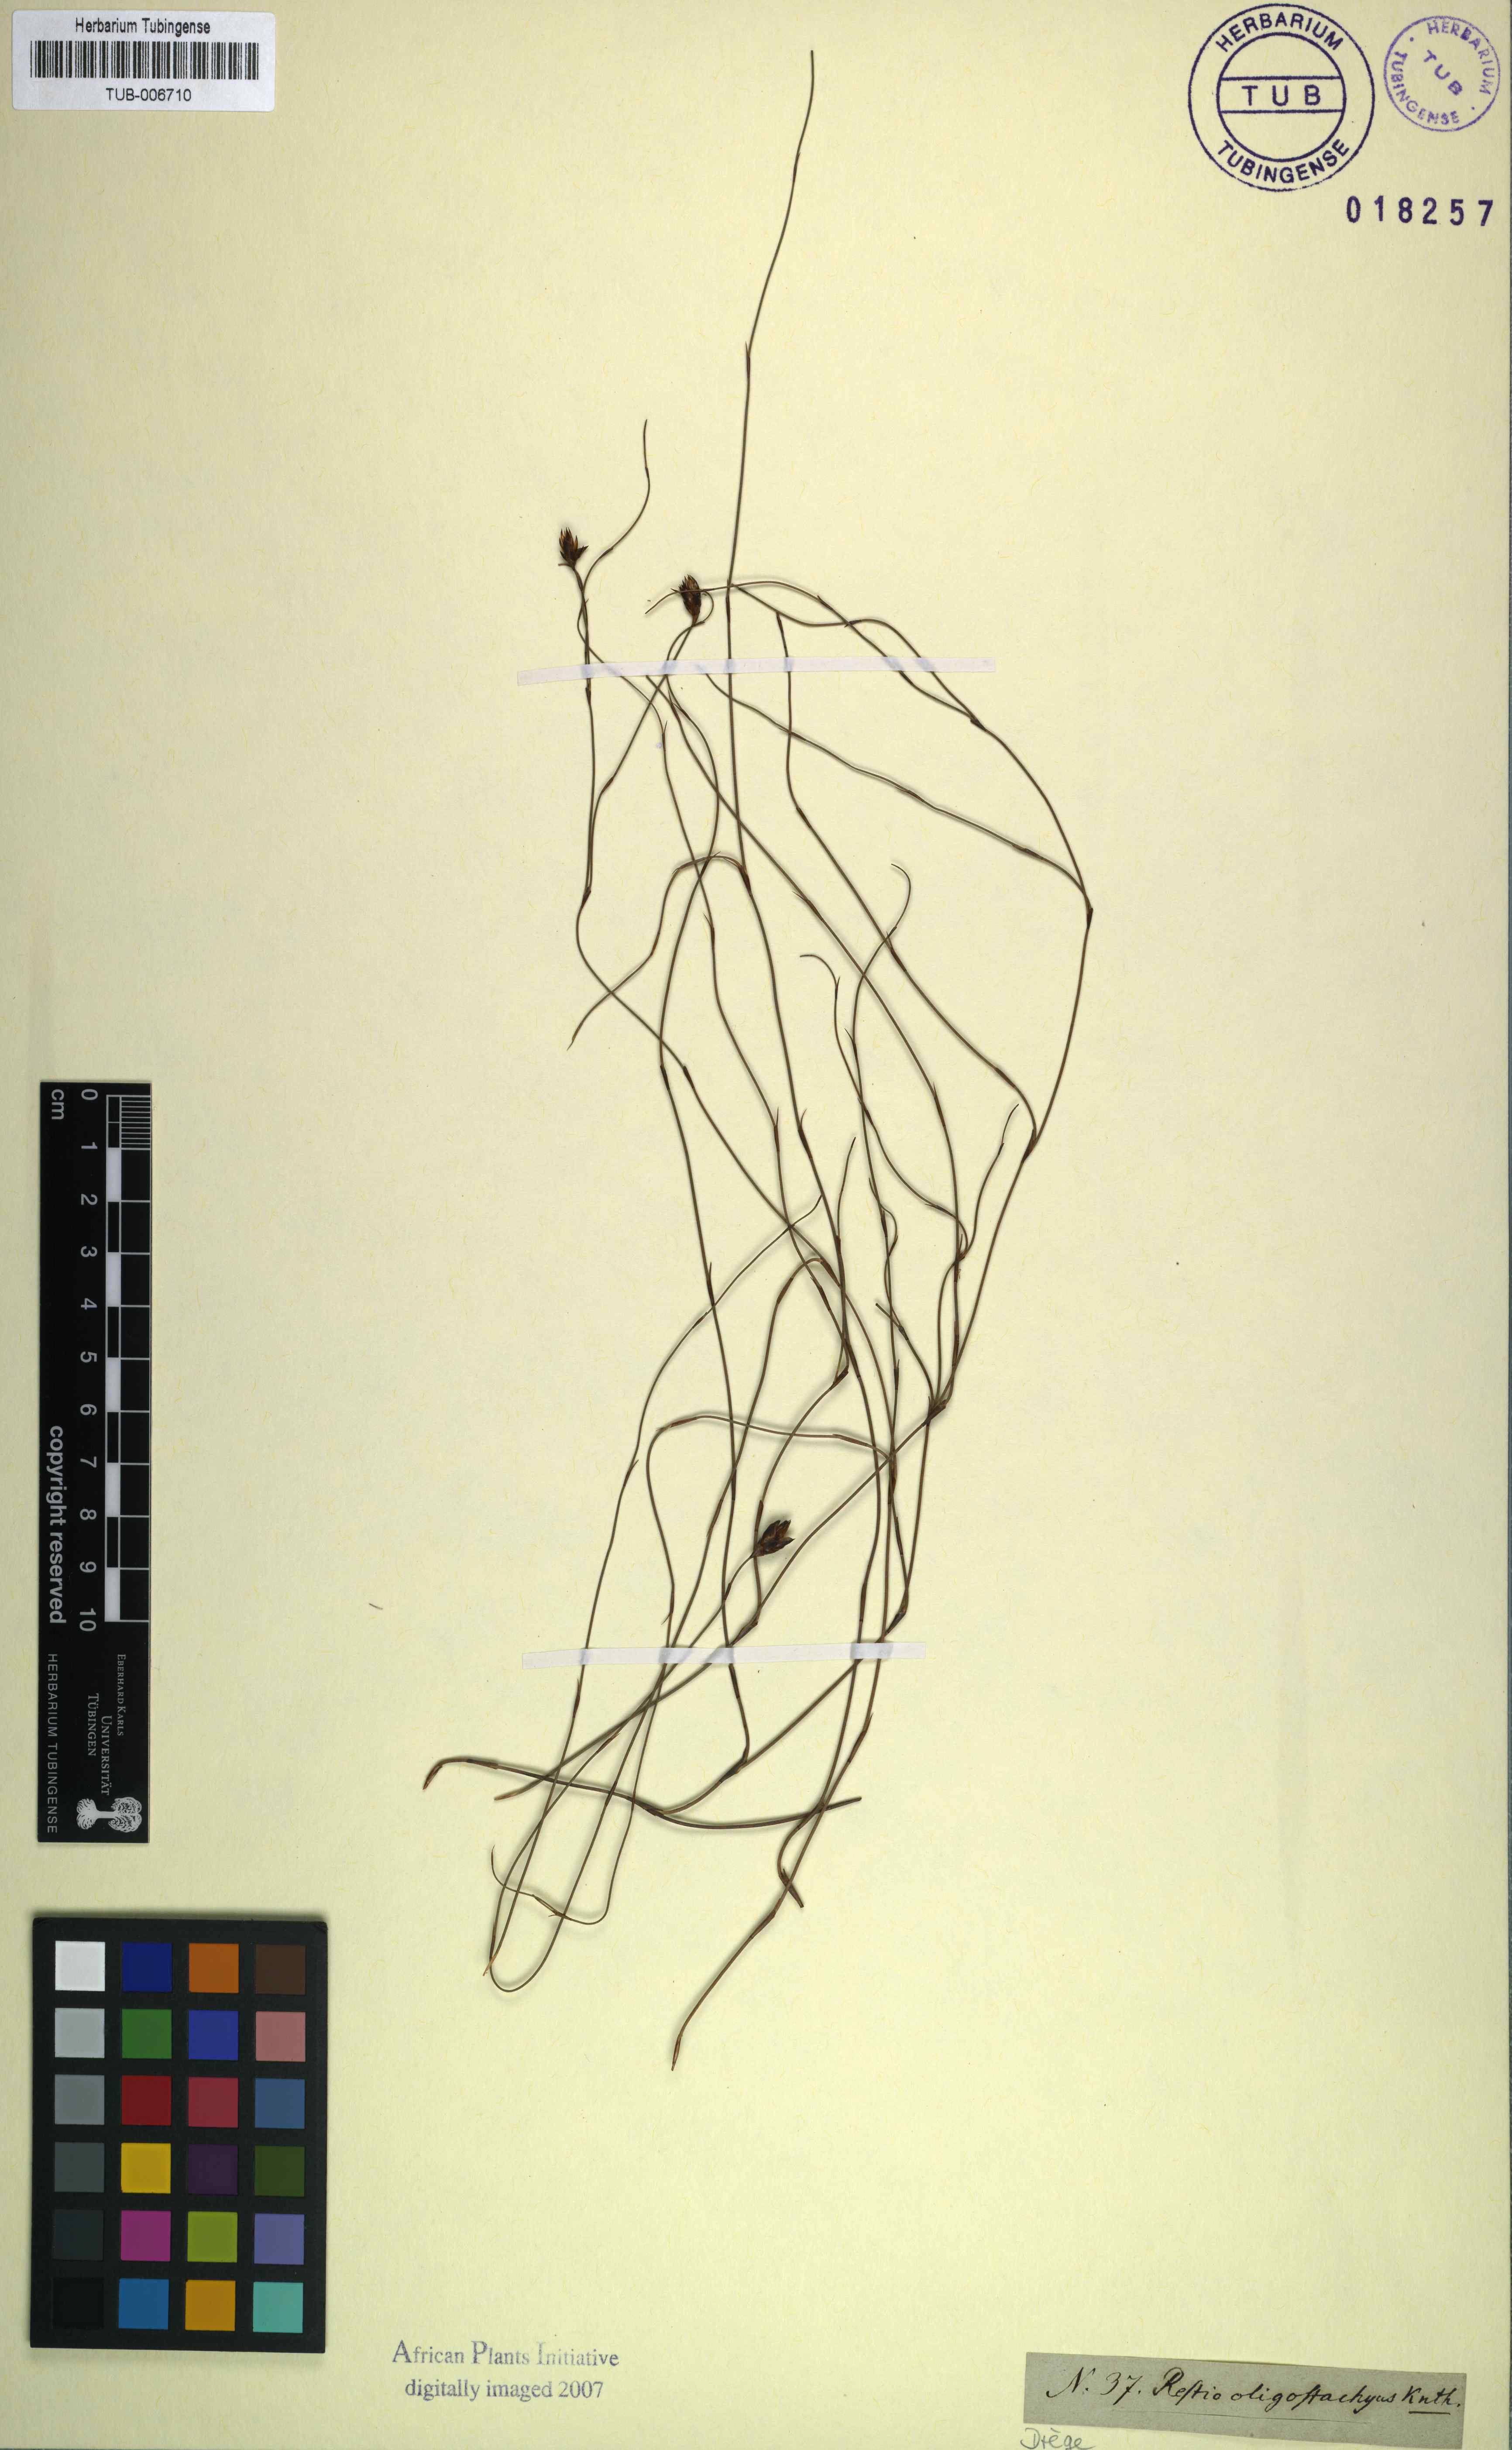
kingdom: Plantae
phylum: Tracheophyta
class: Liliopsida
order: Poales
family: Restionaceae
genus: Restio
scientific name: Restio bifidus
